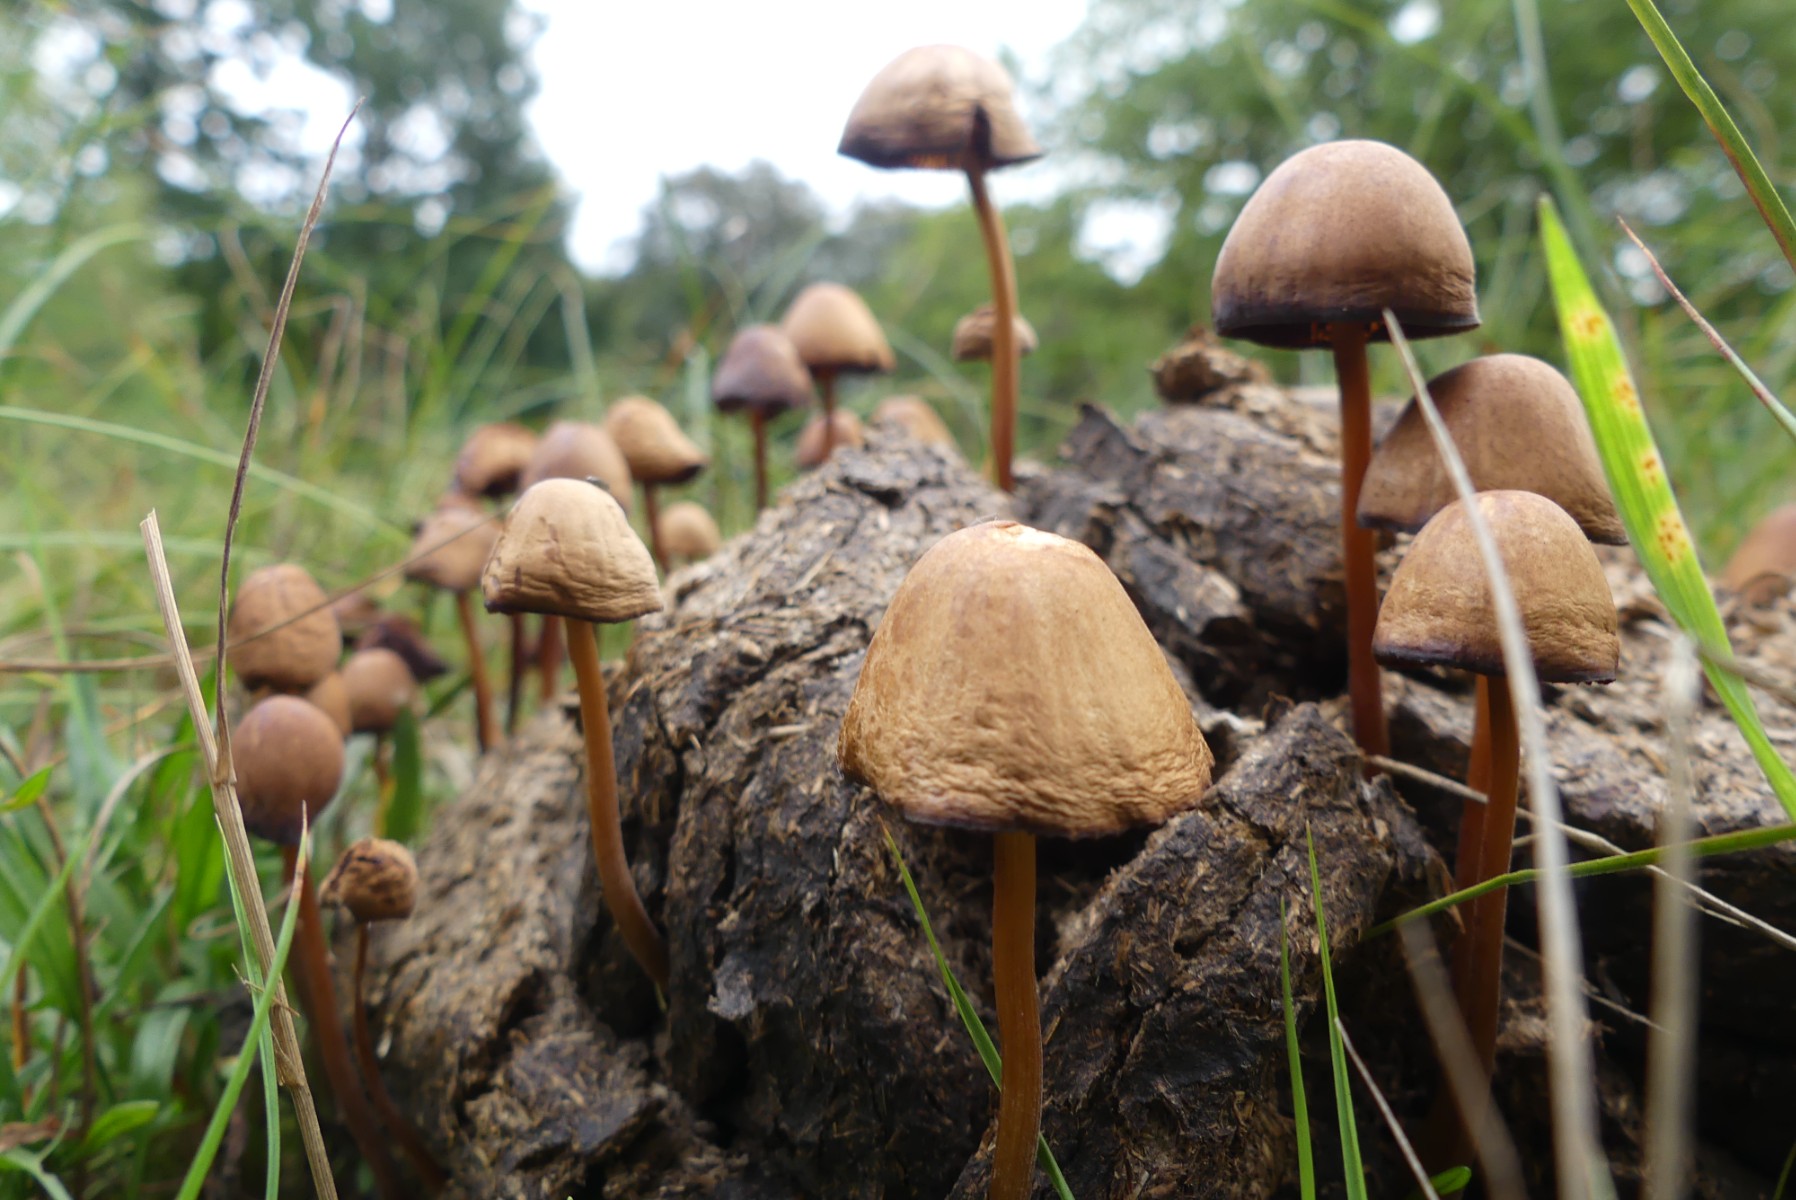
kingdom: Fungi
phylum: Basidiomycota
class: Agaricomycetes
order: Agaricales
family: Bolbitiaceae
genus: Conocybe
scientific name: Conocybe
